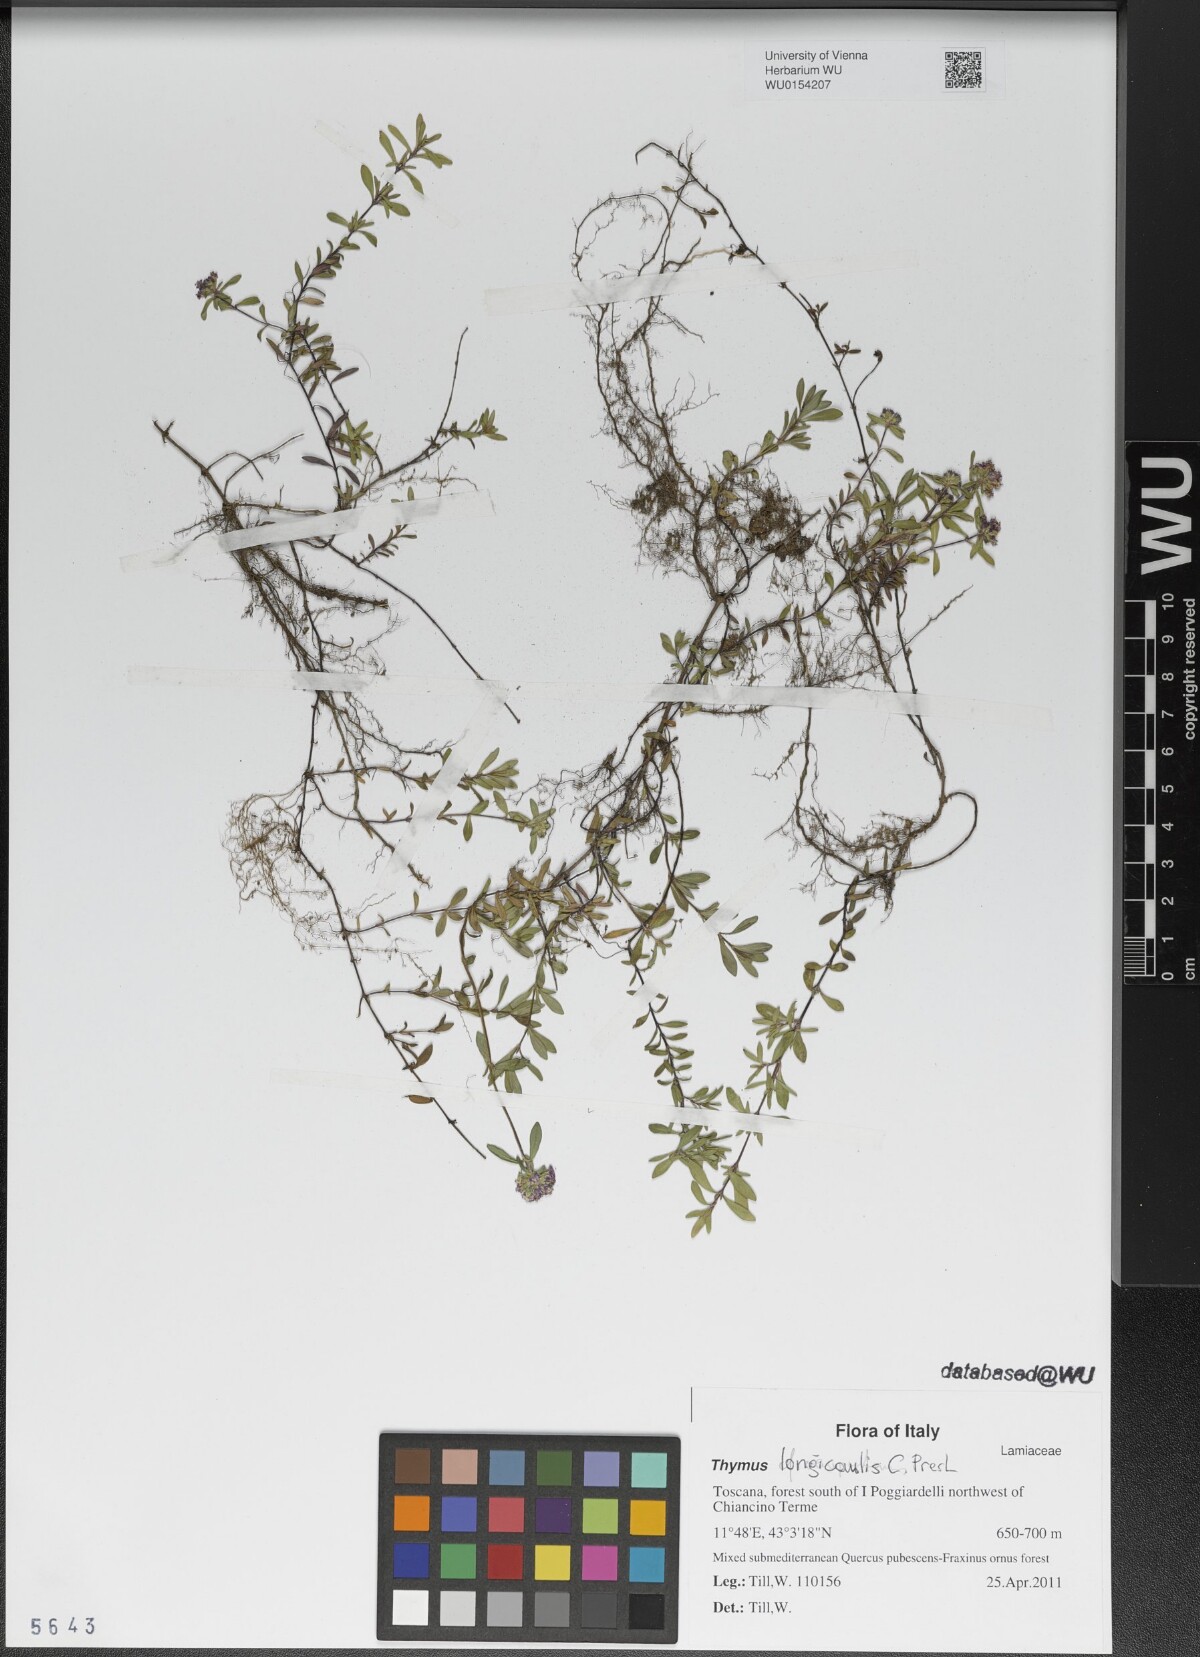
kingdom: Plantae
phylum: Tracheophyta
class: Magnoliopsida
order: Lamiales
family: Lamiaceae
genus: Thymus
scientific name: Thymus longicaulis
